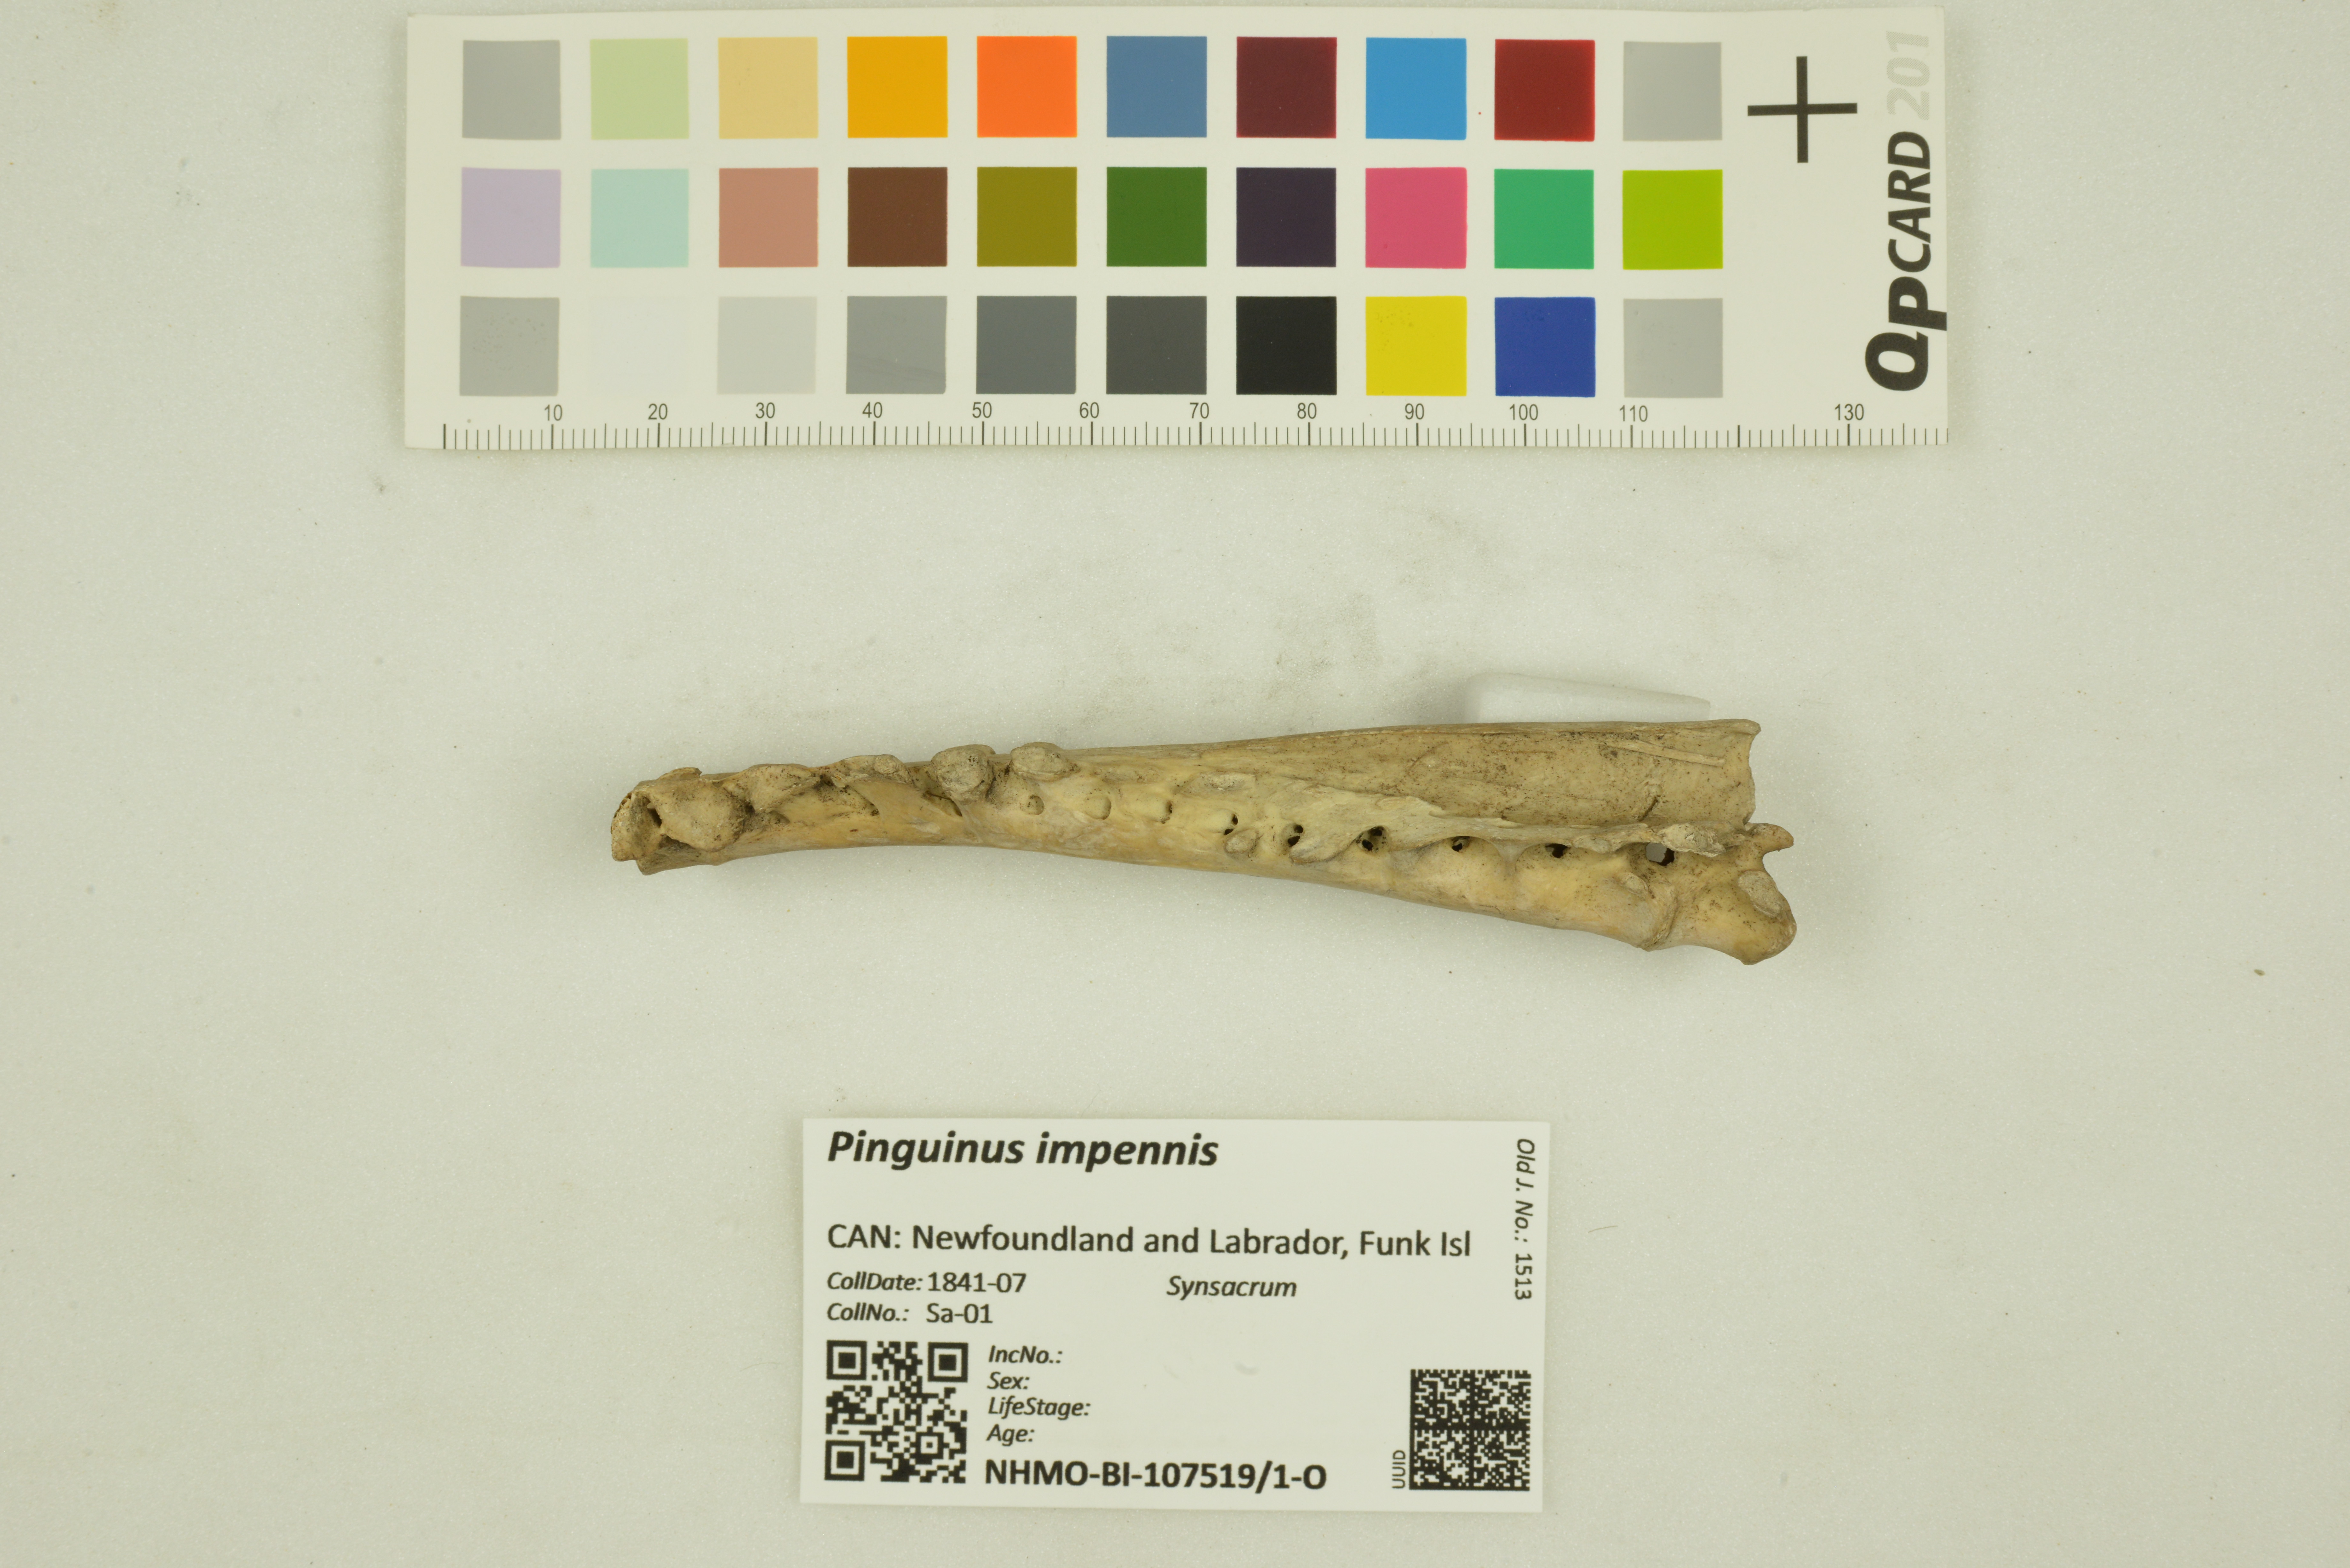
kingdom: Animalia
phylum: Chordata
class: Aves
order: Charadriiformes
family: Alcidae
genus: Pinguinus
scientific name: Pinguinus impennis
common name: Great auk
